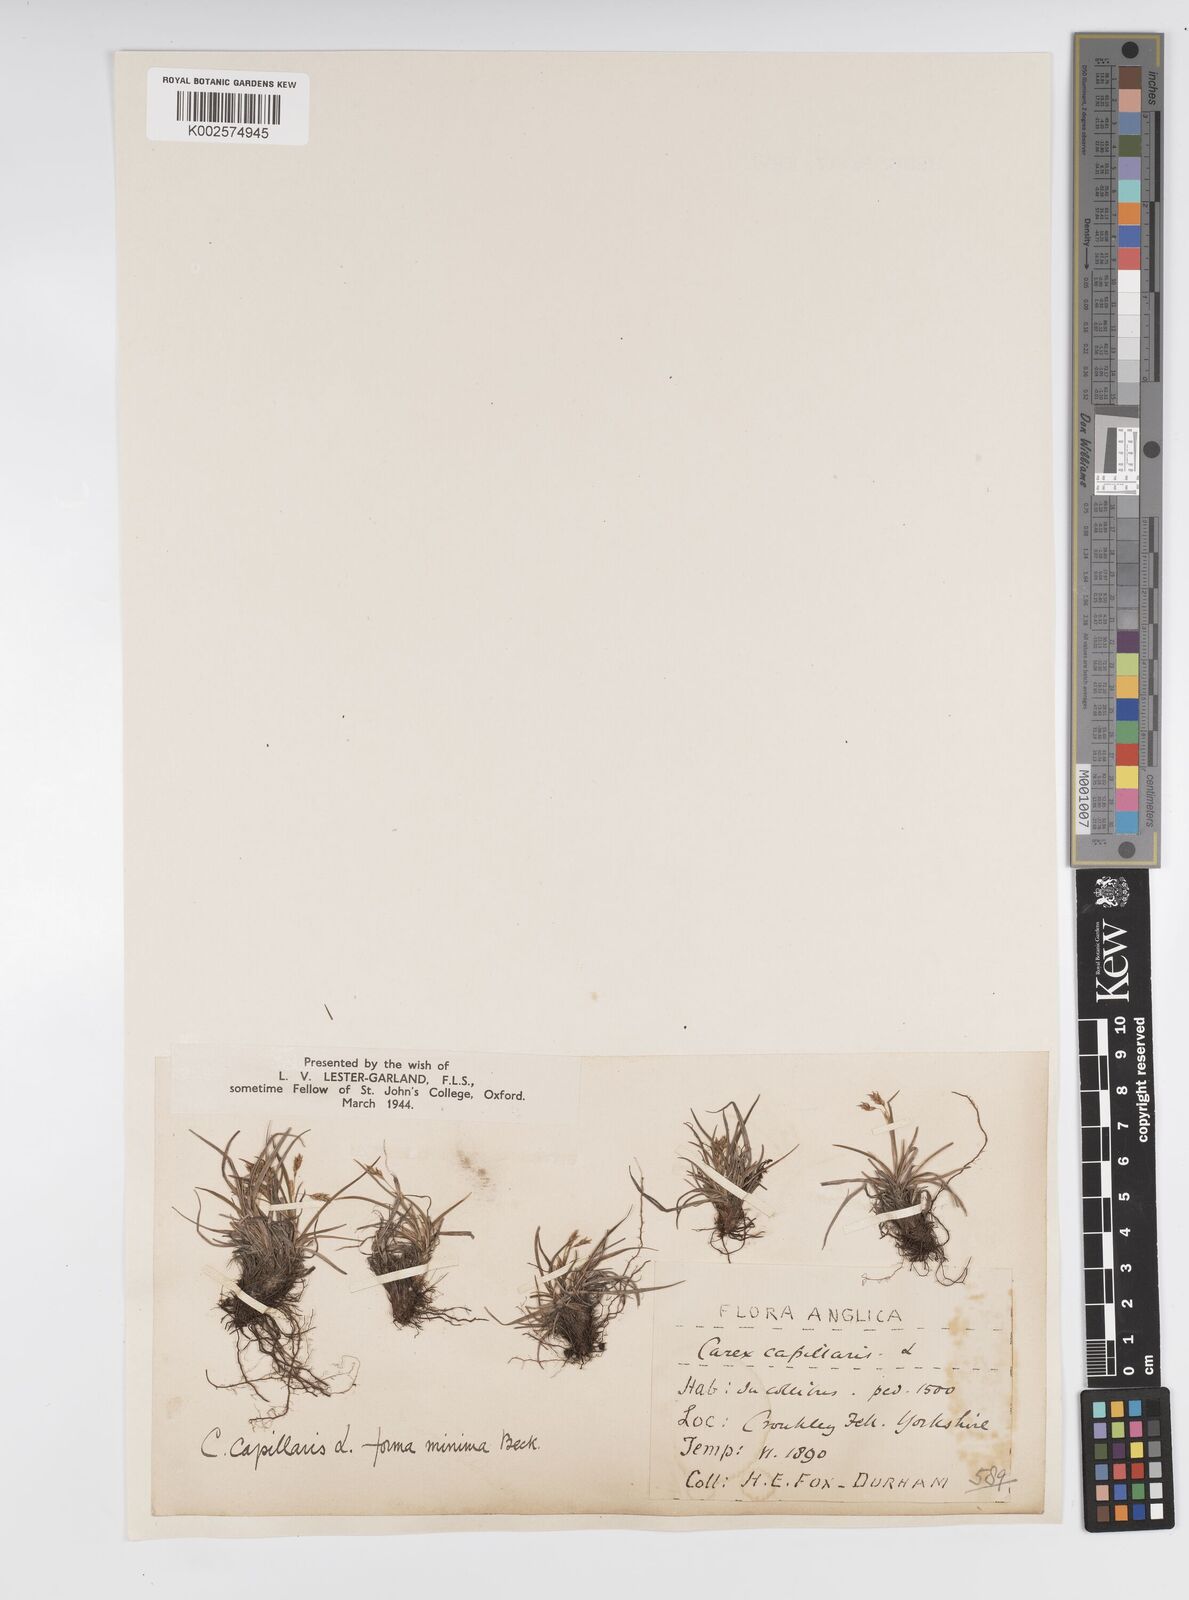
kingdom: Plantae
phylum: Tracheophyta
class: Liliopsida
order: Poales
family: Cyperaceae
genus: Carex
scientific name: Carex capillaris
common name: Hair sedge
